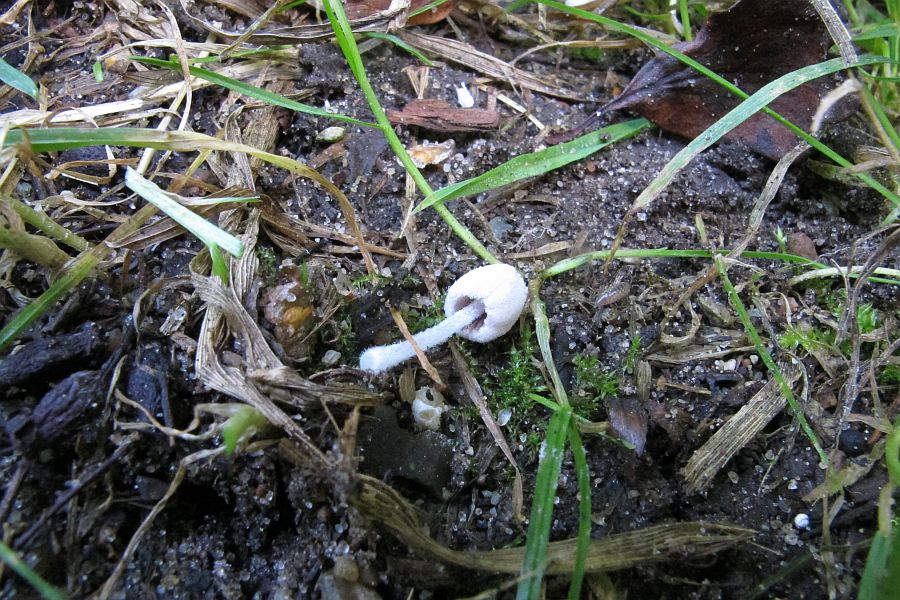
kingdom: Fungi
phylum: Basidiomycota
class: Agaricomycetes
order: Agaricales
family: Psathyrellaceae
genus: Coprinopsis
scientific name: Coprinopsis candidata
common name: hvidklædt blækhat
